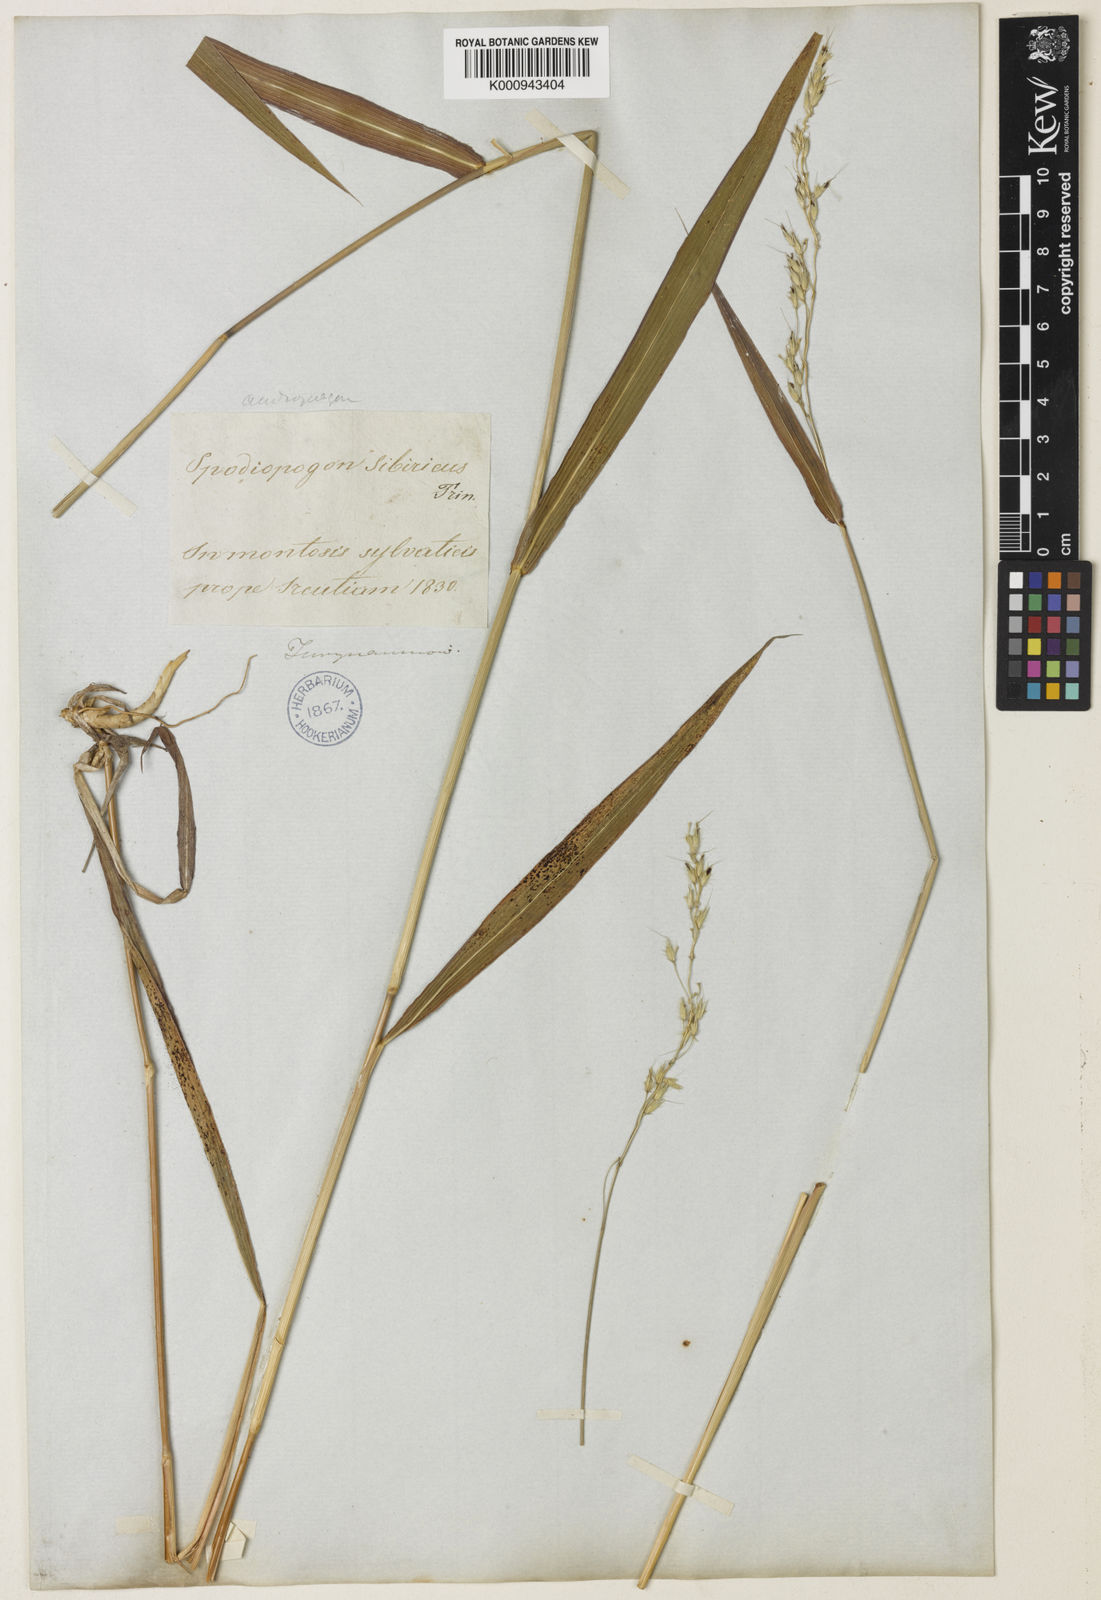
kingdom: Plantae
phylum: Tracheophyta
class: Liliopsida
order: Poales
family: Poaceae
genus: Spodiopogon
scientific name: Spodiopogon sibiricus
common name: Siberian graybeard
